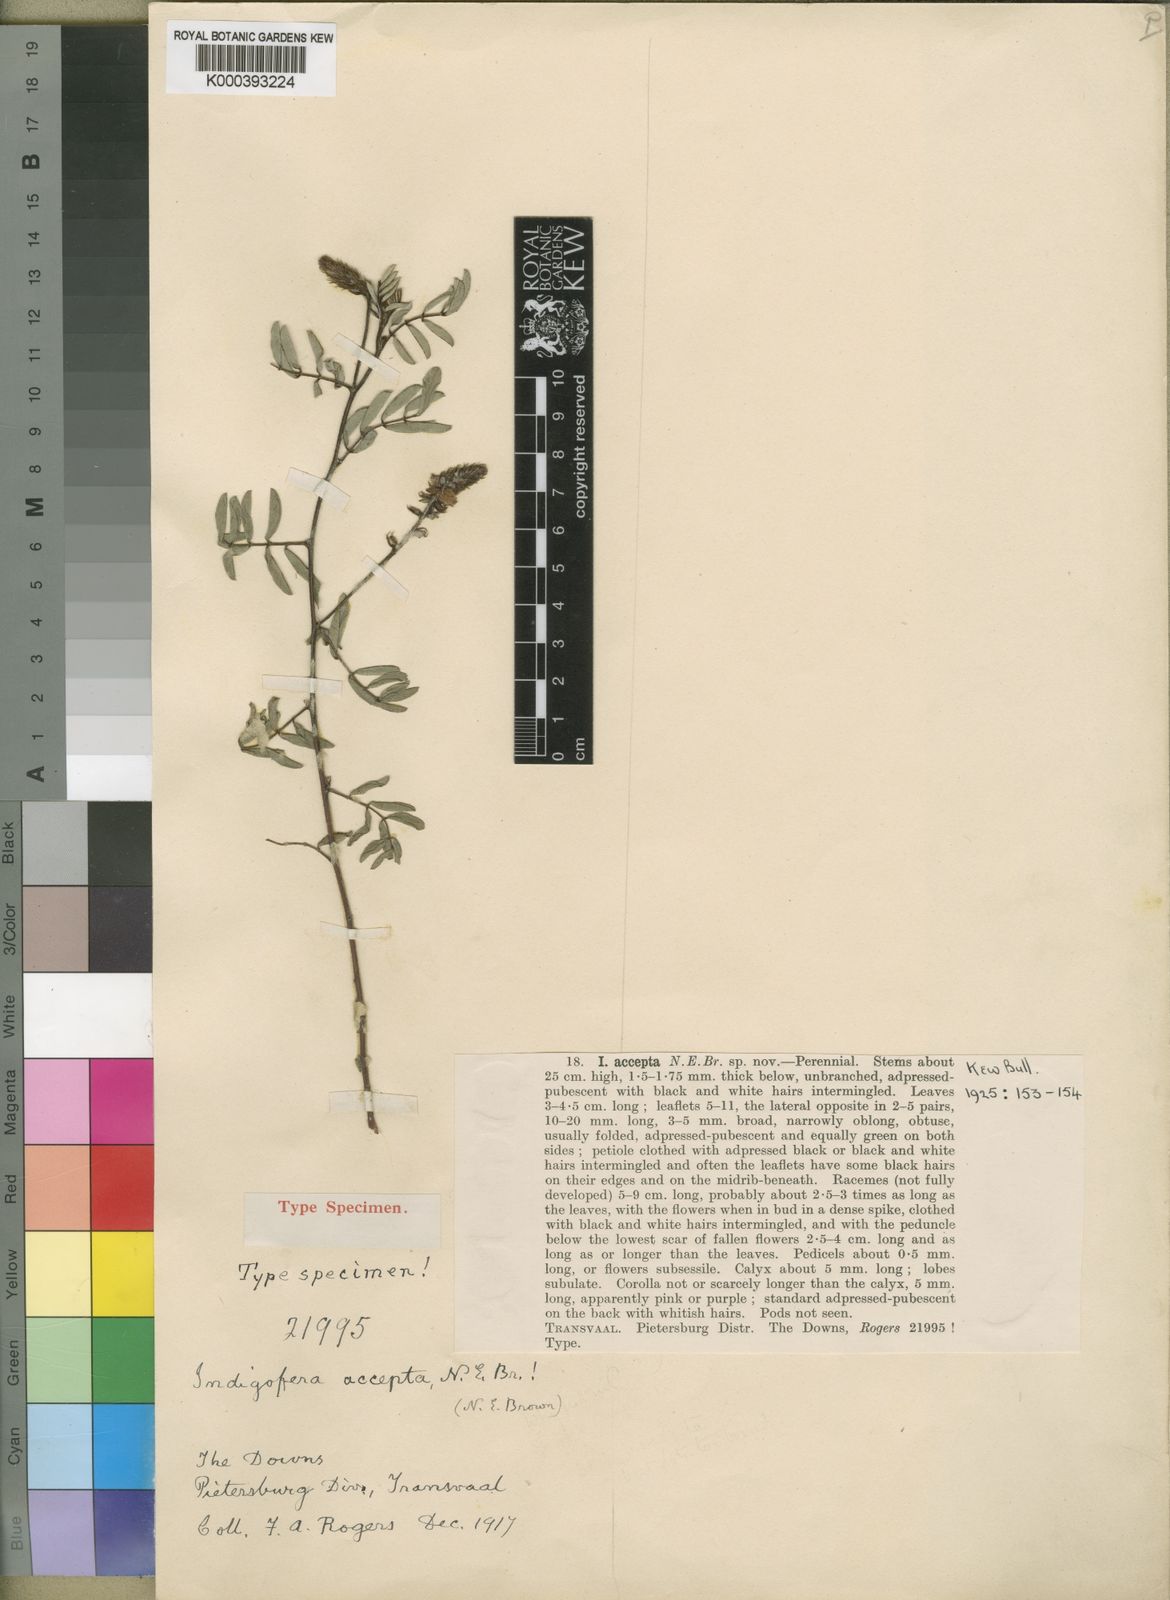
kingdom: Plantae
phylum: Tracheophyta
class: Magnoliopsida
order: Fabales
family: Fabaceae
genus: Indigofera
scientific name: Indigofera setiflora
